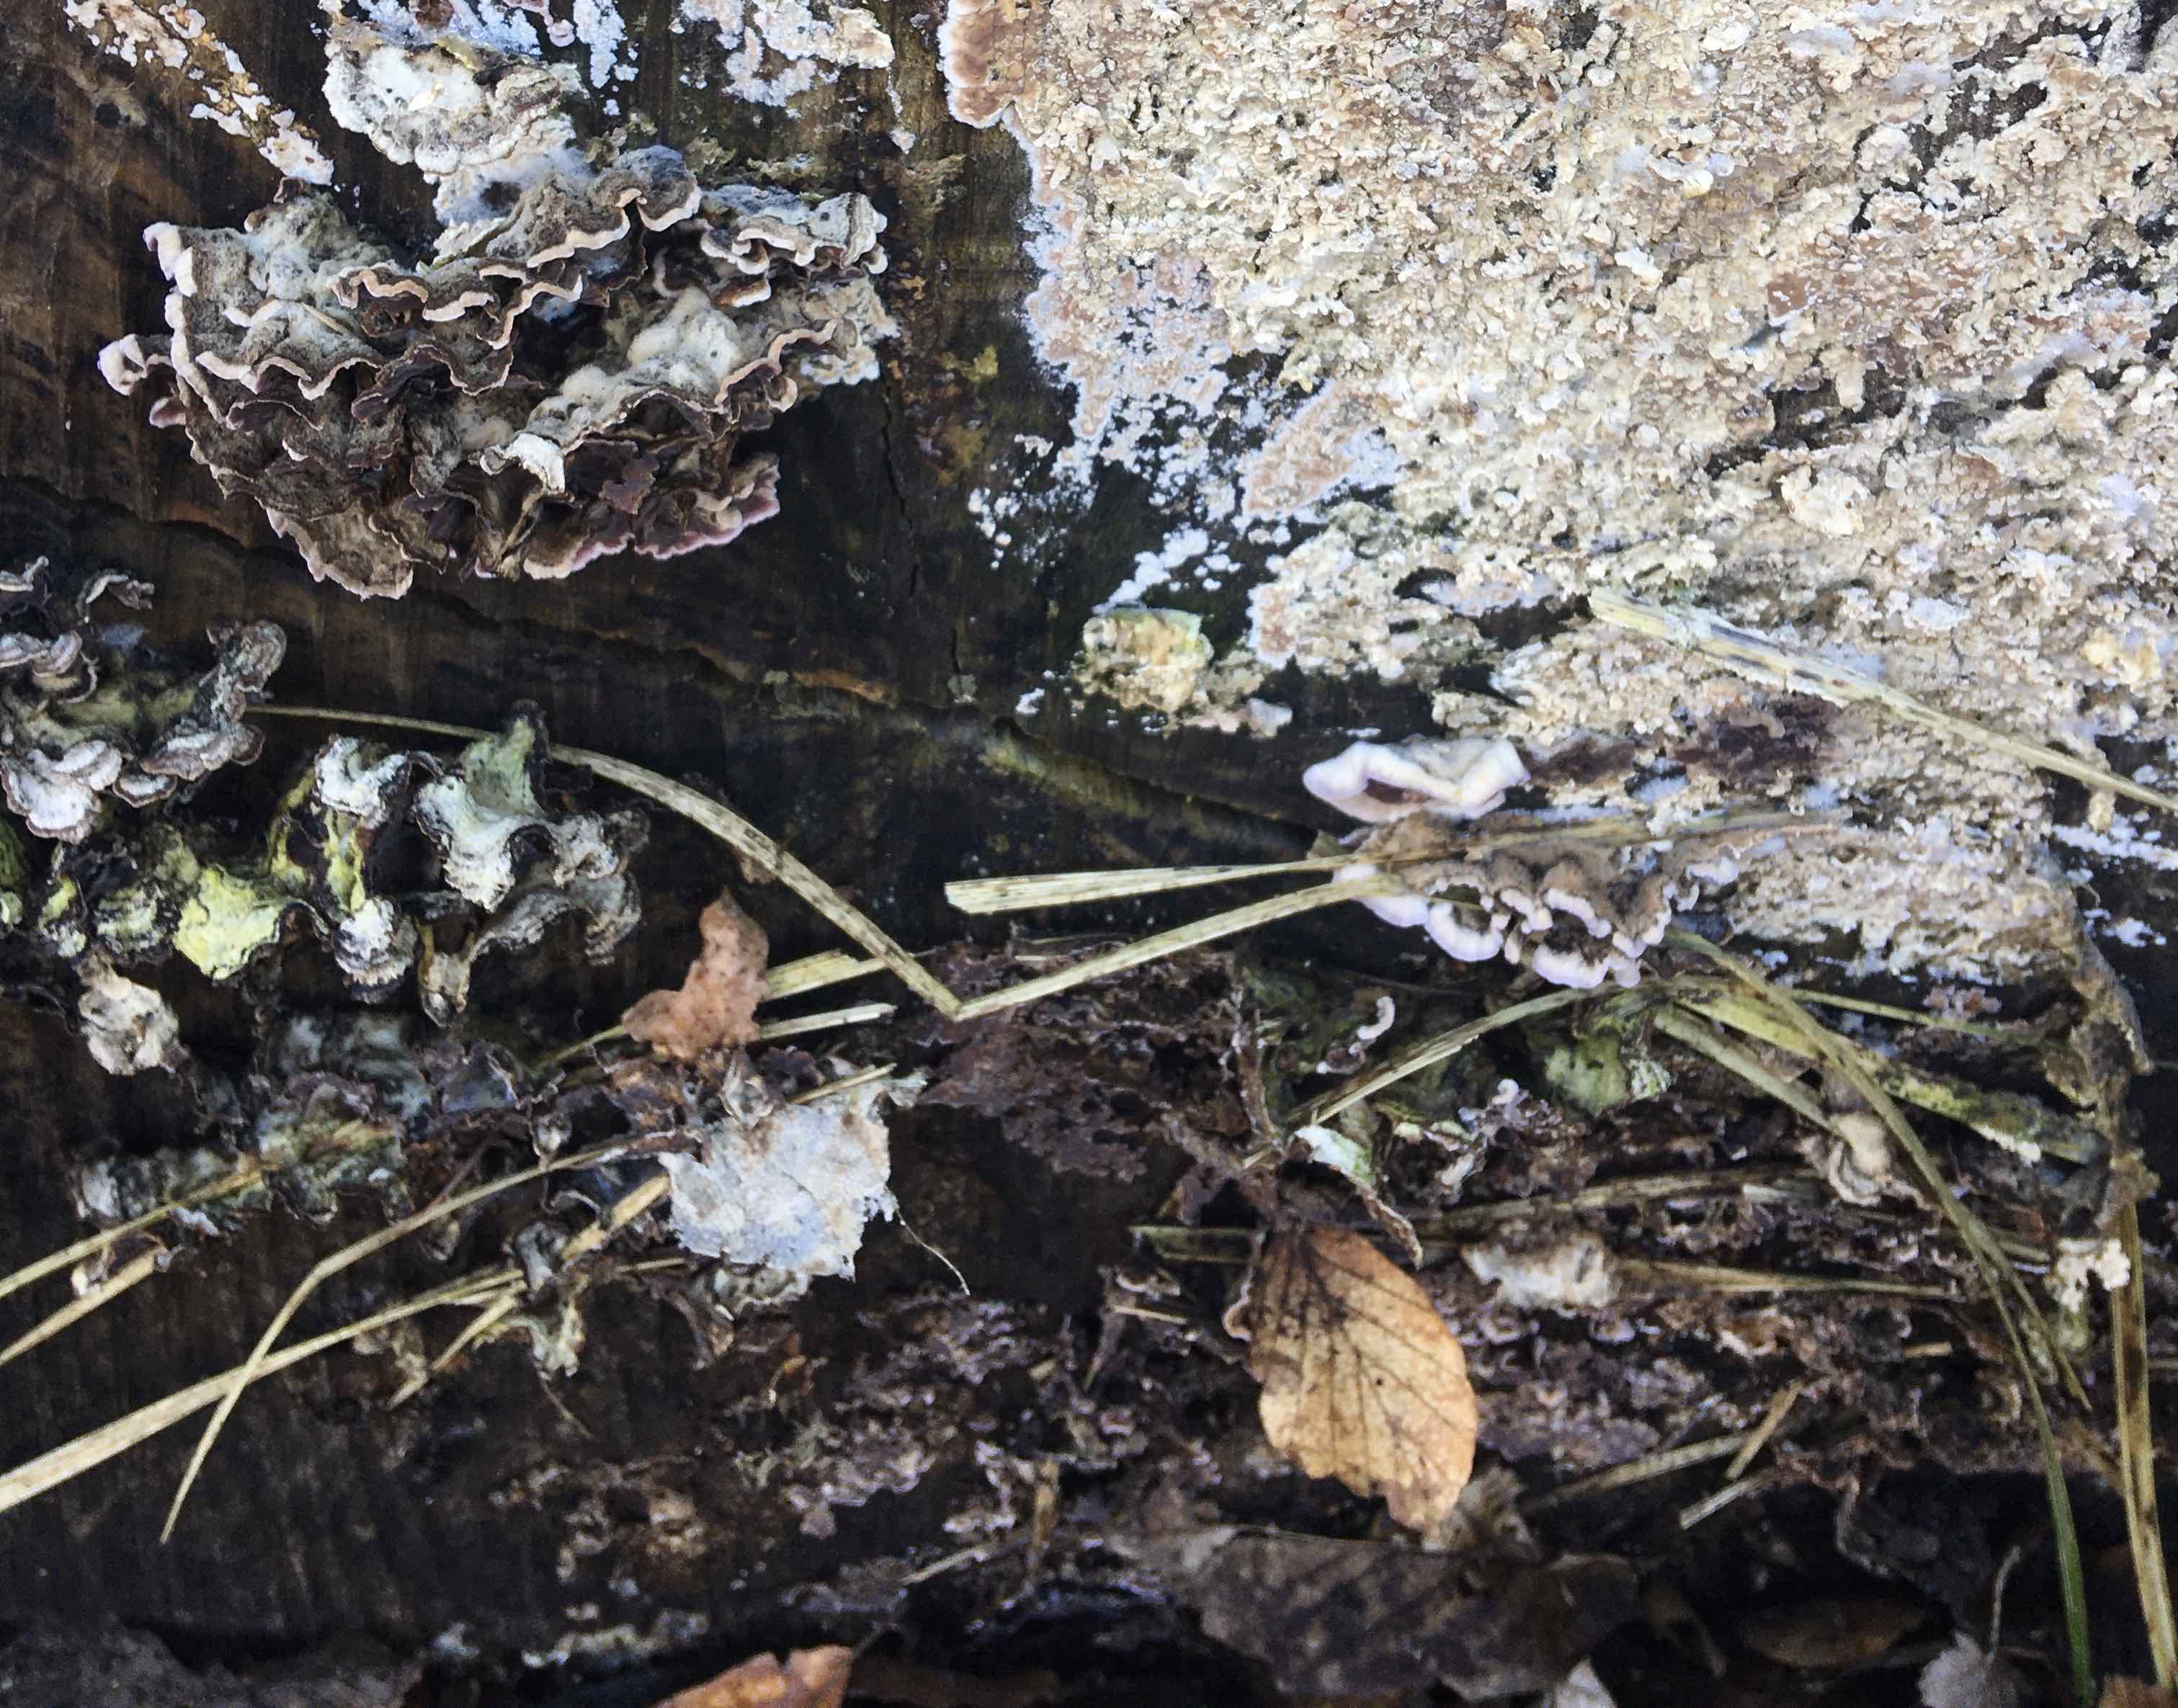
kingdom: Fungi
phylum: Basidiomycota
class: Agaricomycetes
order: Agaricales
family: Cyphellaceae
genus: Chondrostereum
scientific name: Chondrostereum purpureum
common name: purpurlædersvamp
